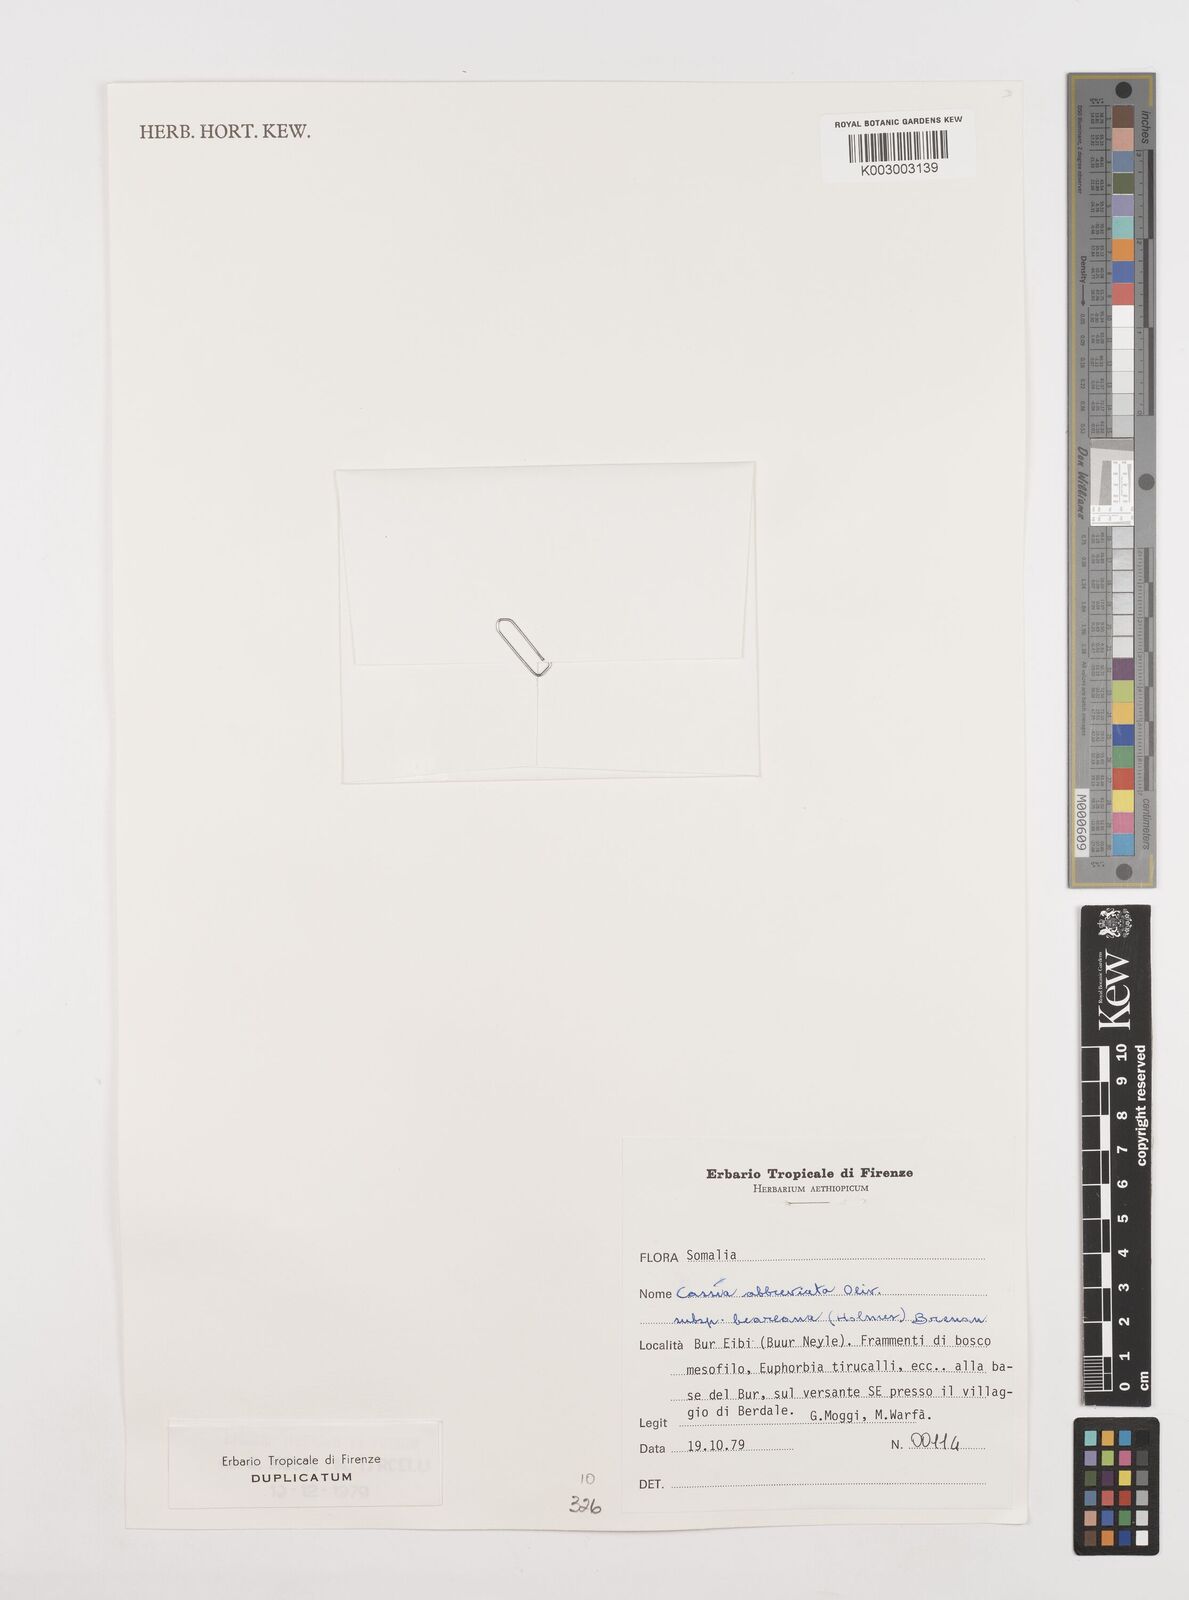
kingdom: Plantae
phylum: Tracheophyta
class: Magnoliopsida
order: Fabales
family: Fabaceae
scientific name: Fabaceae
